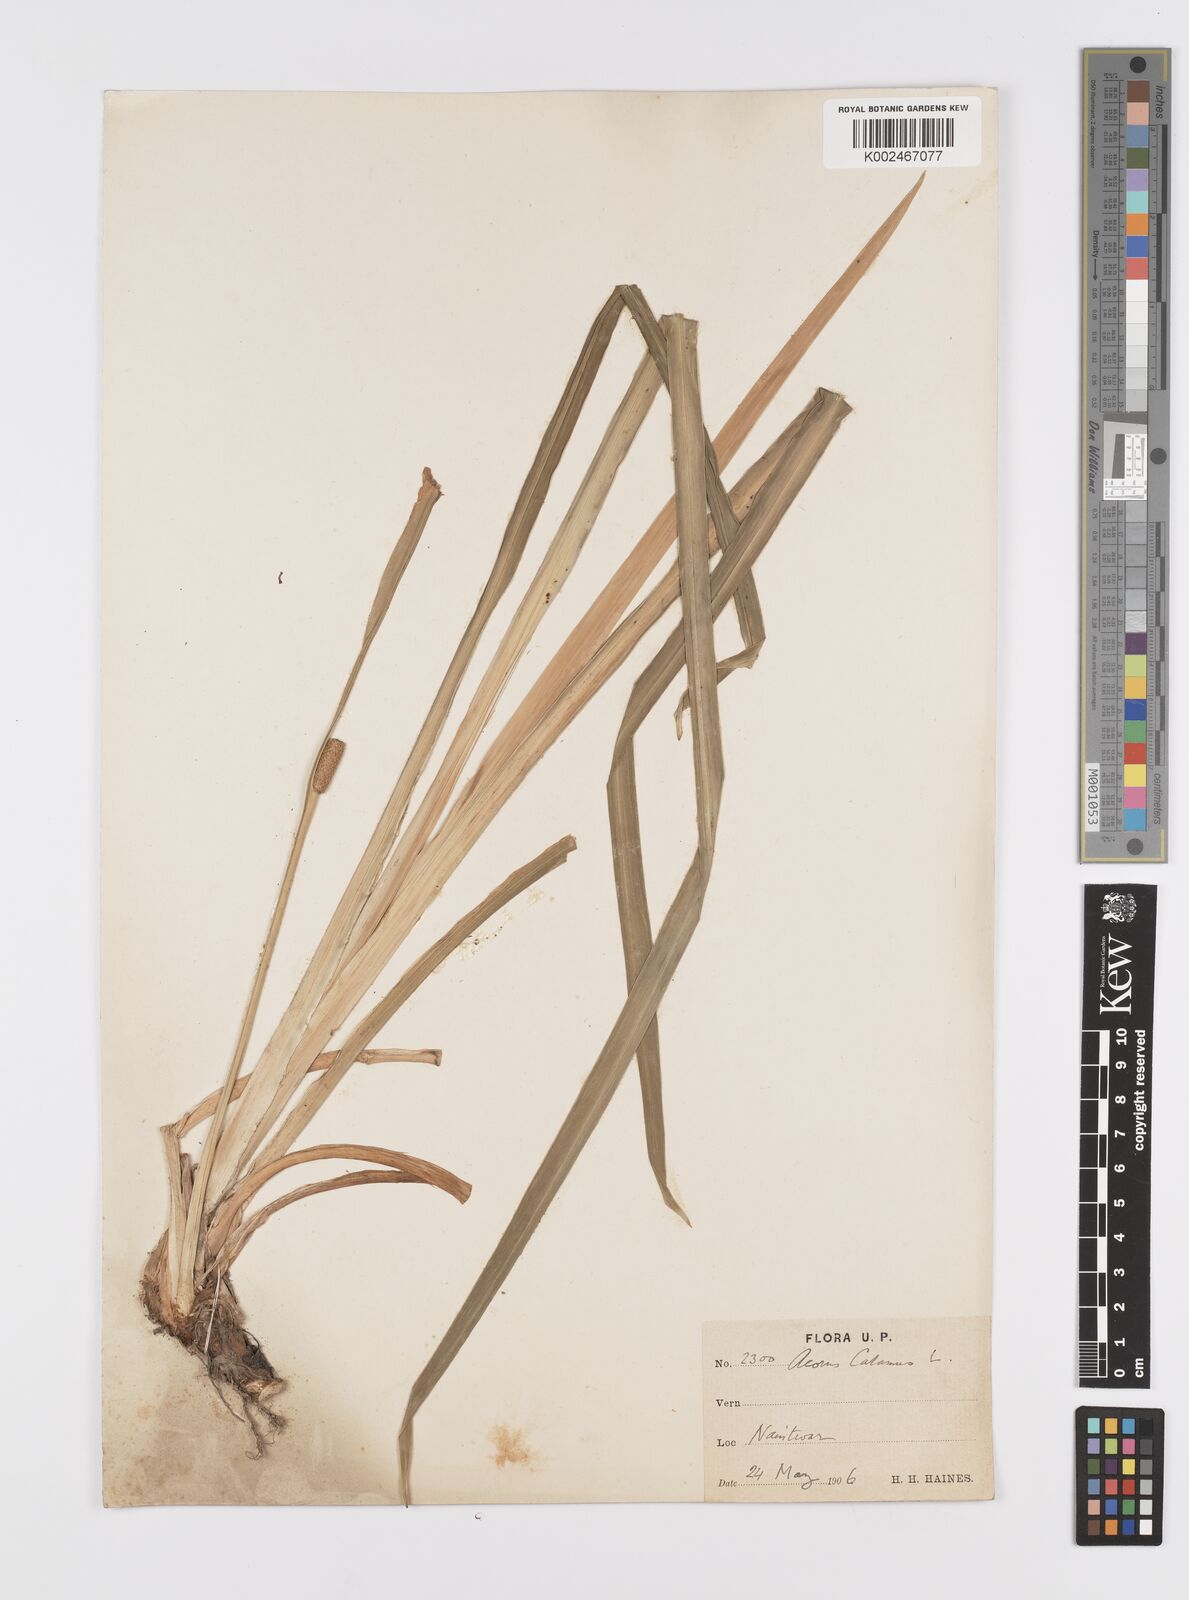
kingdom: Plantae
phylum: Tracheophyta
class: Liliopsida
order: Acorales
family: Acoraceae
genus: Acorus
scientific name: Acorus calamus
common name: Sweet-flag
